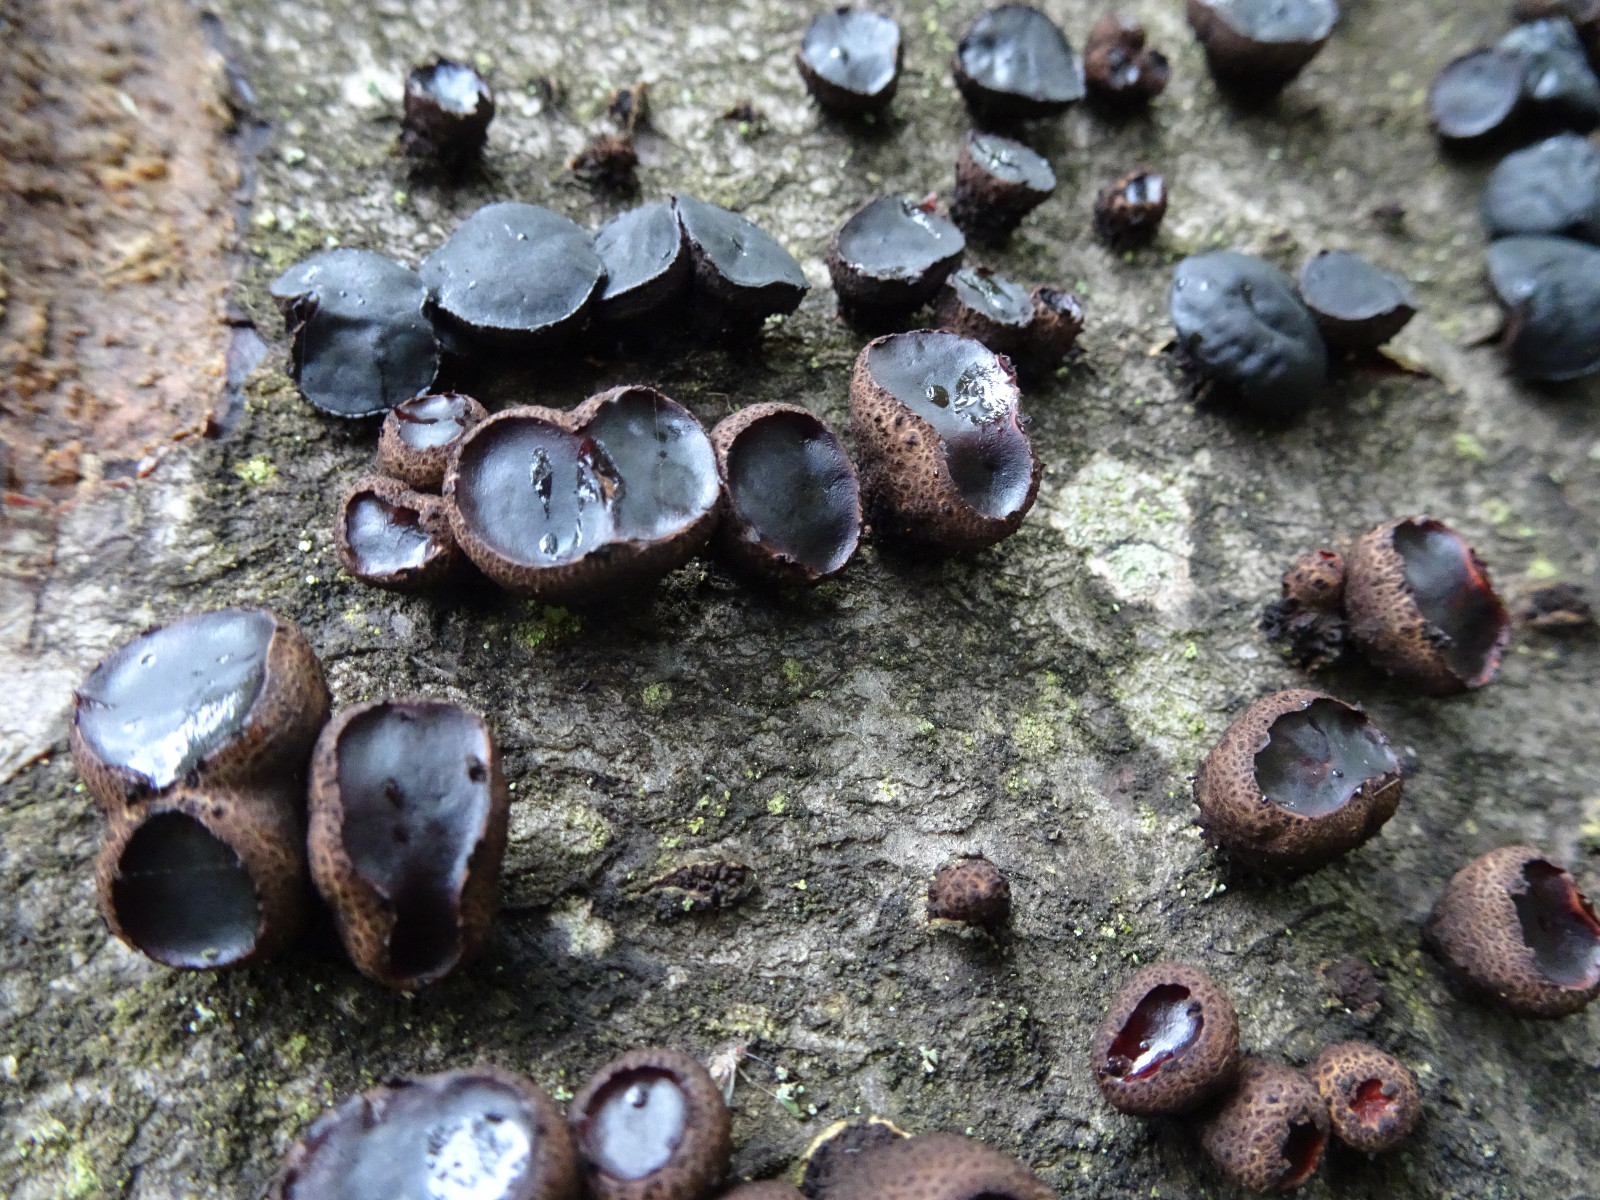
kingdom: Fungi
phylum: Ascomycota
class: Leotiomycetes
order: Phacidiales
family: Phacidiaceae
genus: Bulgaria
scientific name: Bulgaria inquinans
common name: afsmittende topsvamp
